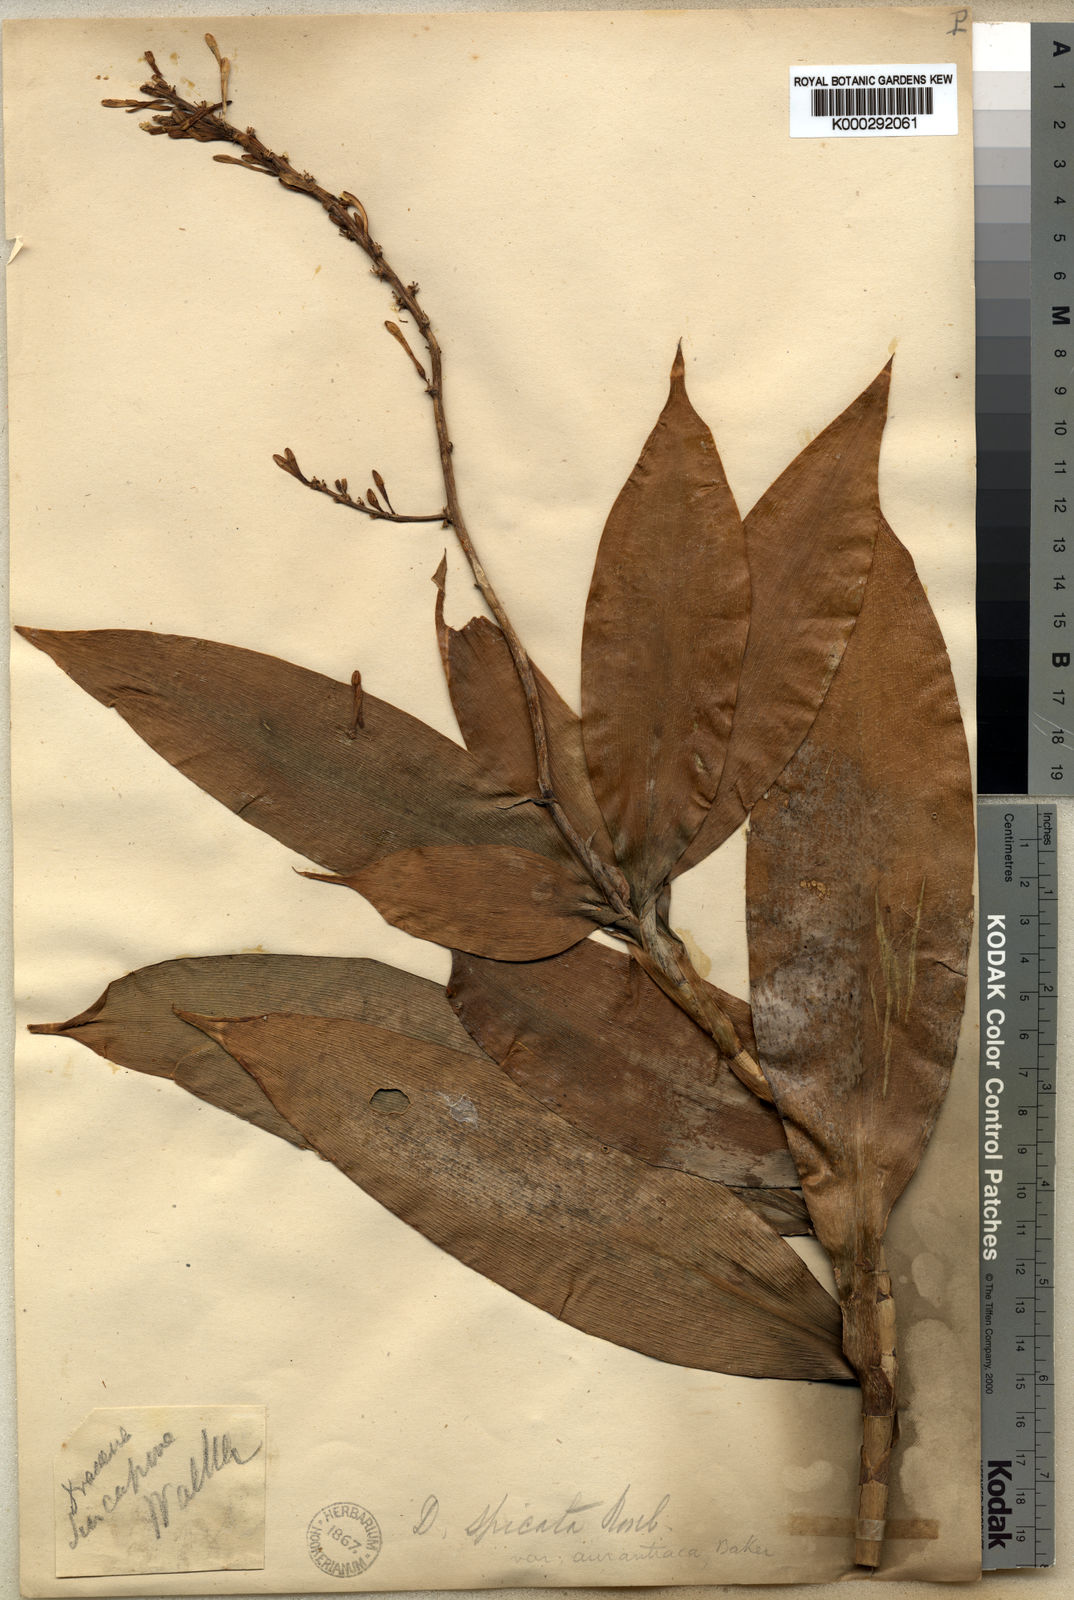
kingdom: Plantae
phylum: Tracheophyta
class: Liliopsida
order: Asparagales
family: Asparagaceae
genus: Dracaena
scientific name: Dracaena umbratica
